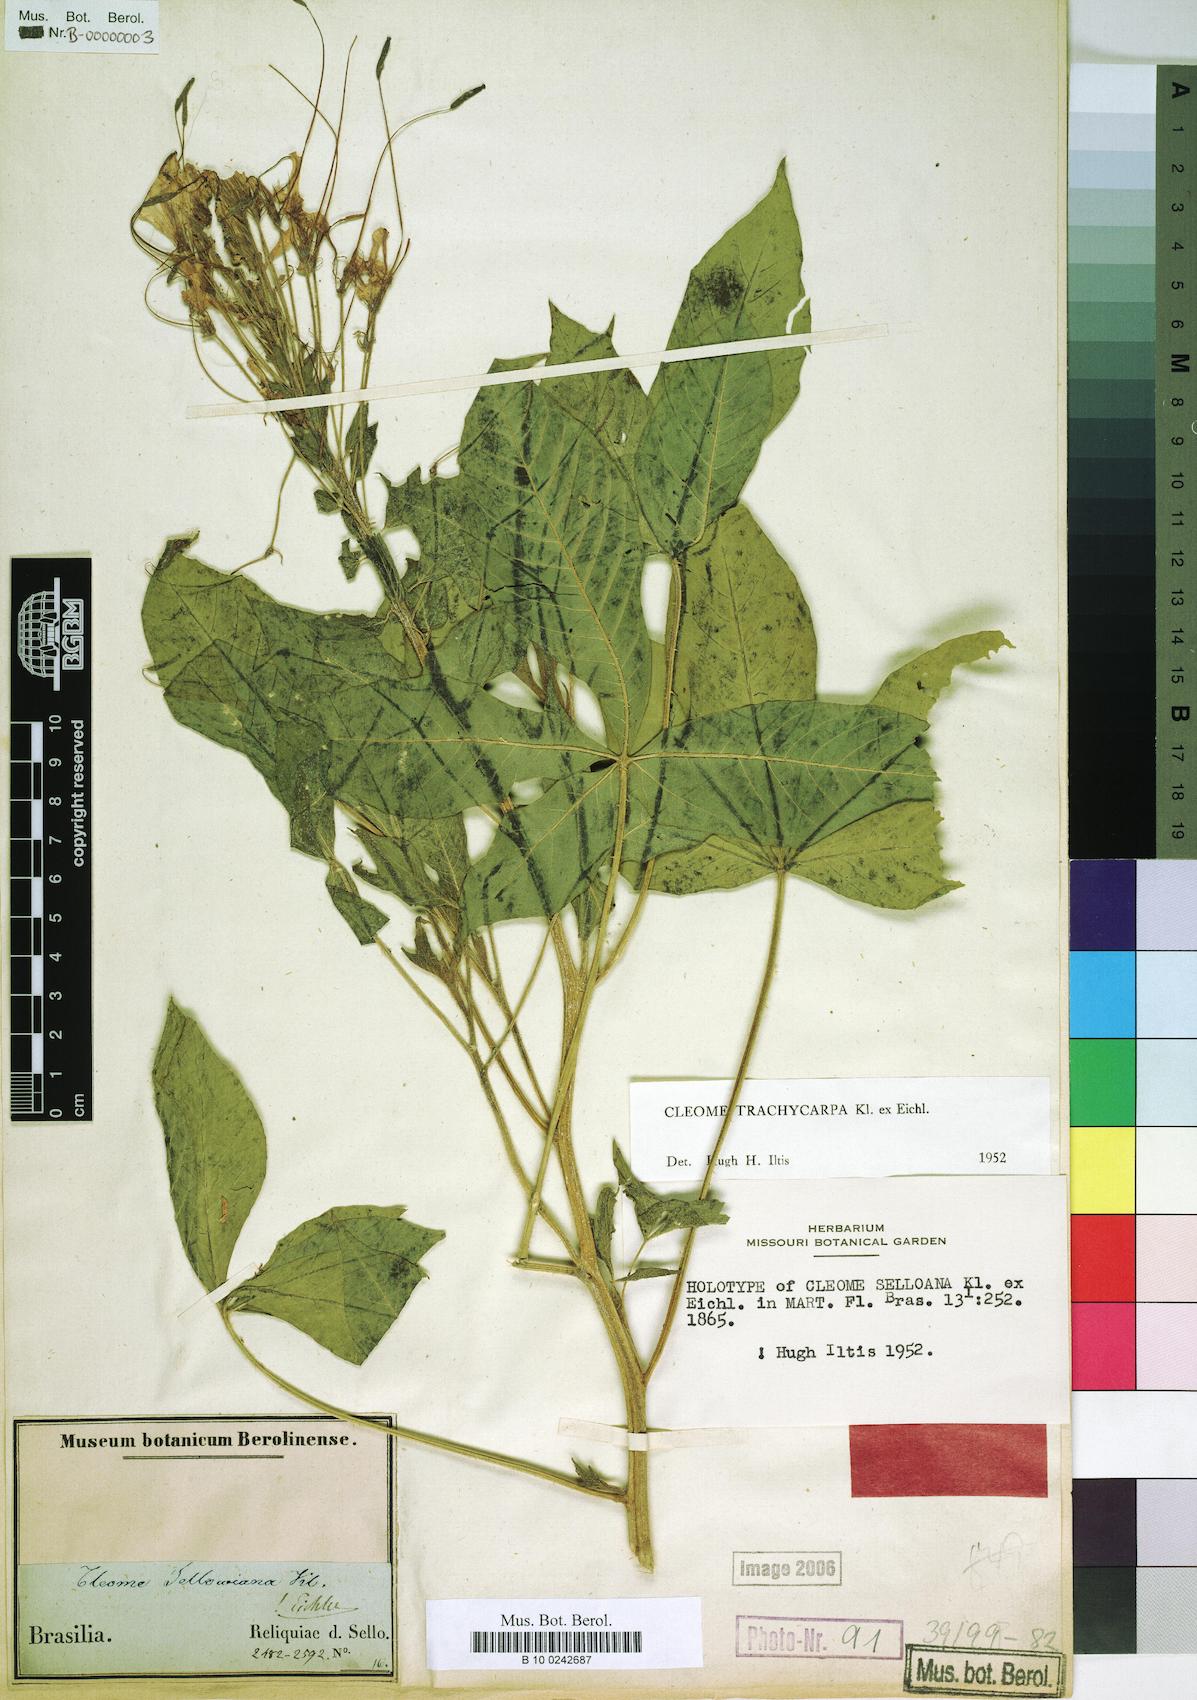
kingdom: Plantae
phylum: Tracheophyta
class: Magnoliopsida
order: Brassicales
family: Cleomaceae
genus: Tarenaya
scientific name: Tarenaya trachycarpa
